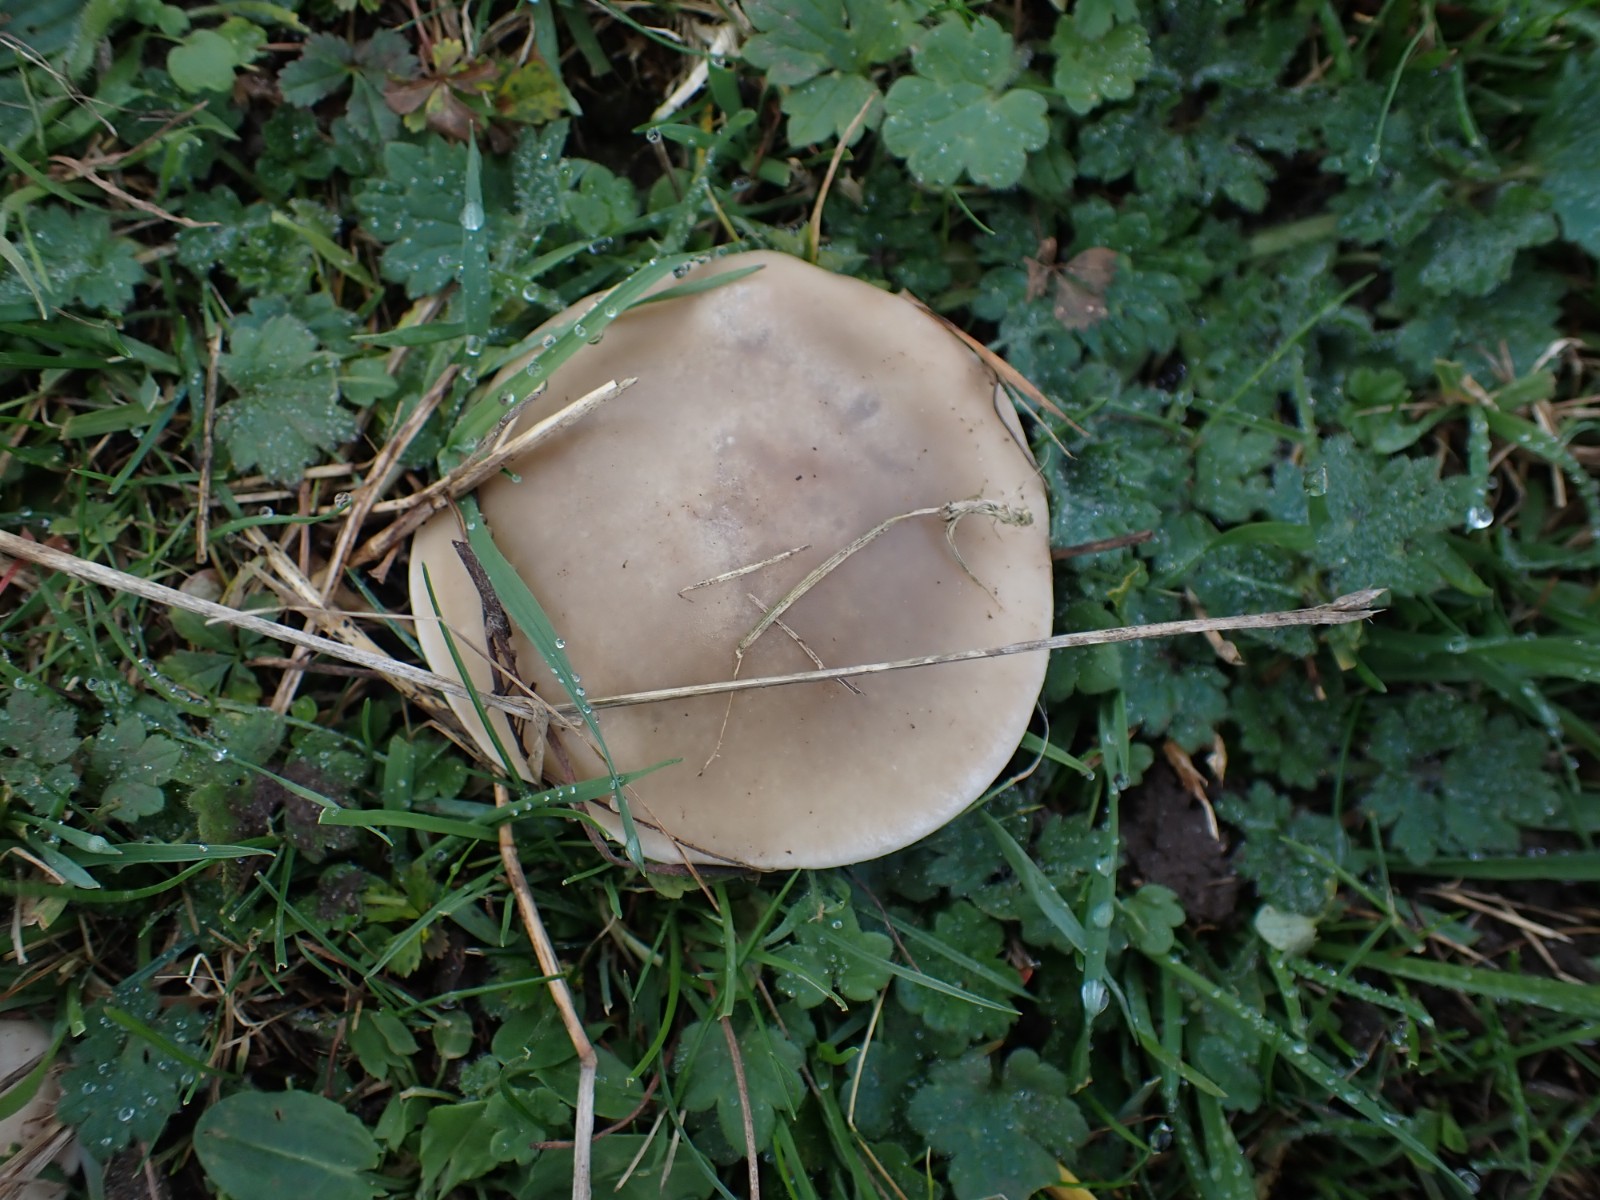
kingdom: Fungi
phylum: Basidiomycota
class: Agaricomycetes
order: Agaricales
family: Tricholomataceae
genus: Lepista
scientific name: Lepista personata
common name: bleg hekseringshat
